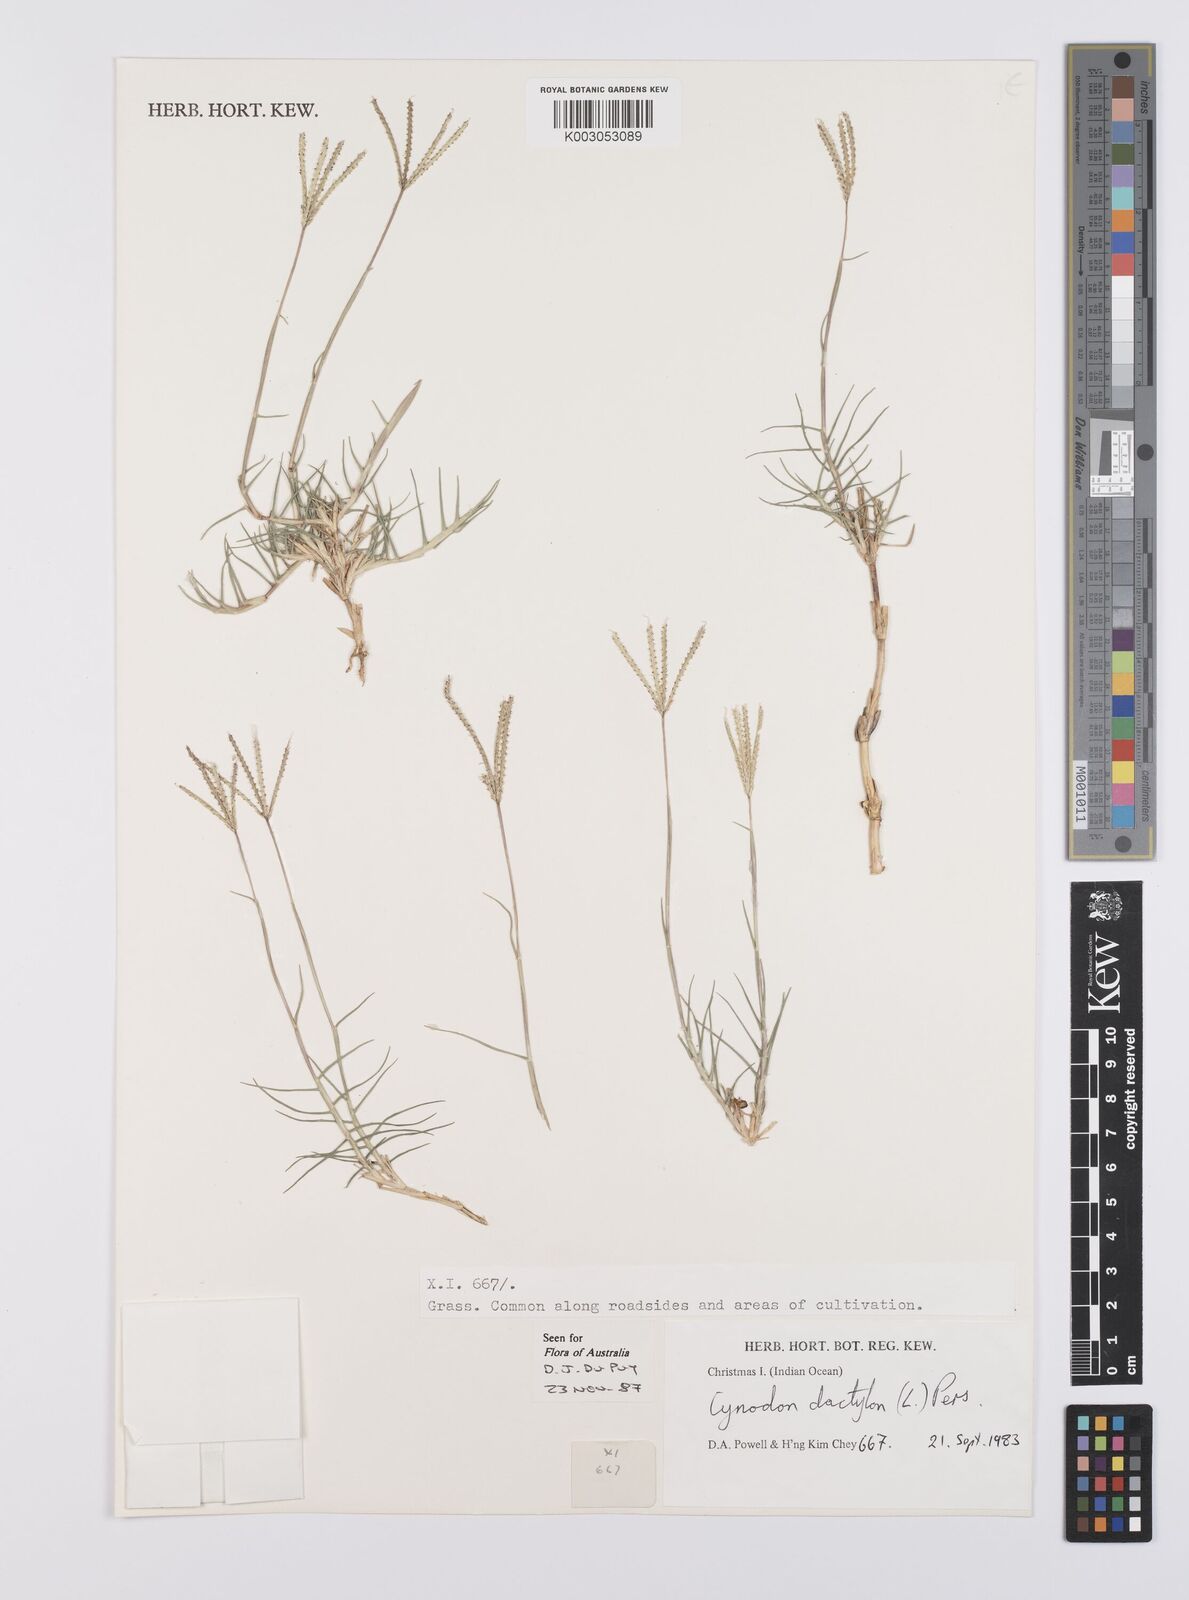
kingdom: Plantae
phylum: Tracheophyta
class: Liliopsida
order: Poales
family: Poaceae
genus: Cynodon
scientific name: Cynodon dactylon
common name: Bermuda grass
